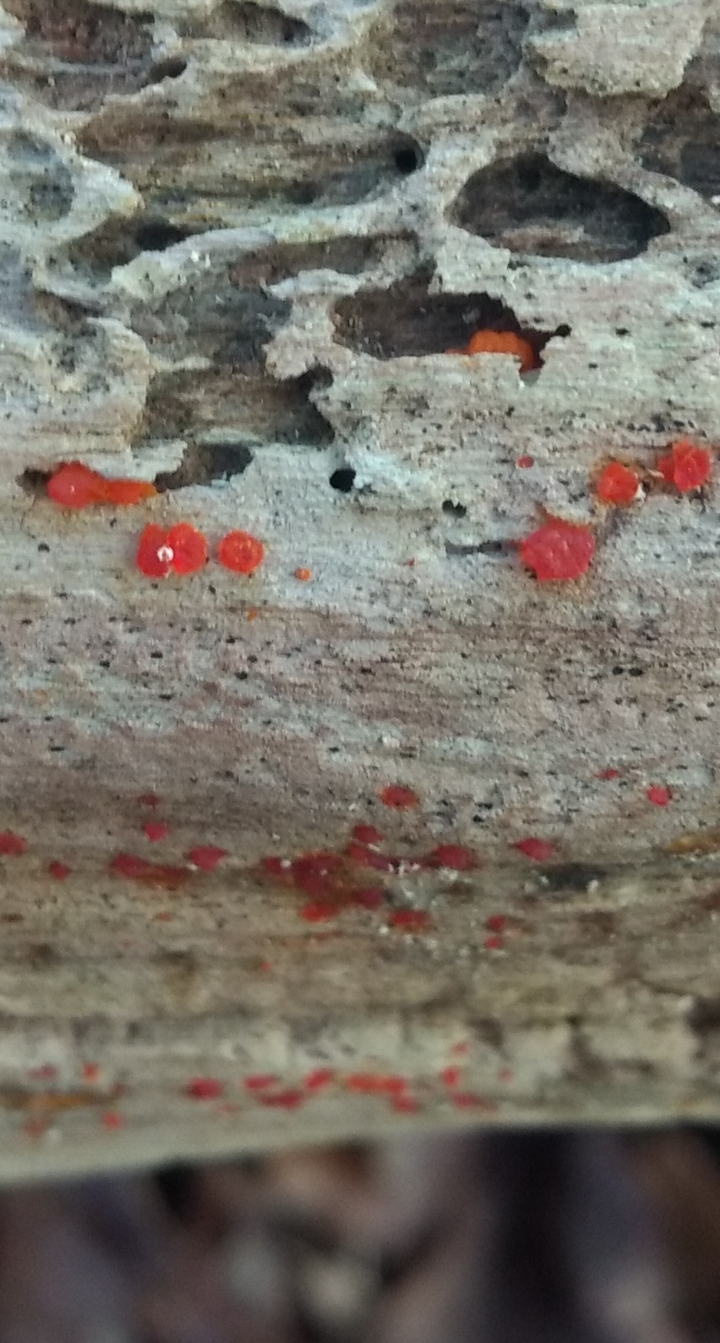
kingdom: Fungi
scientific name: Fungi
